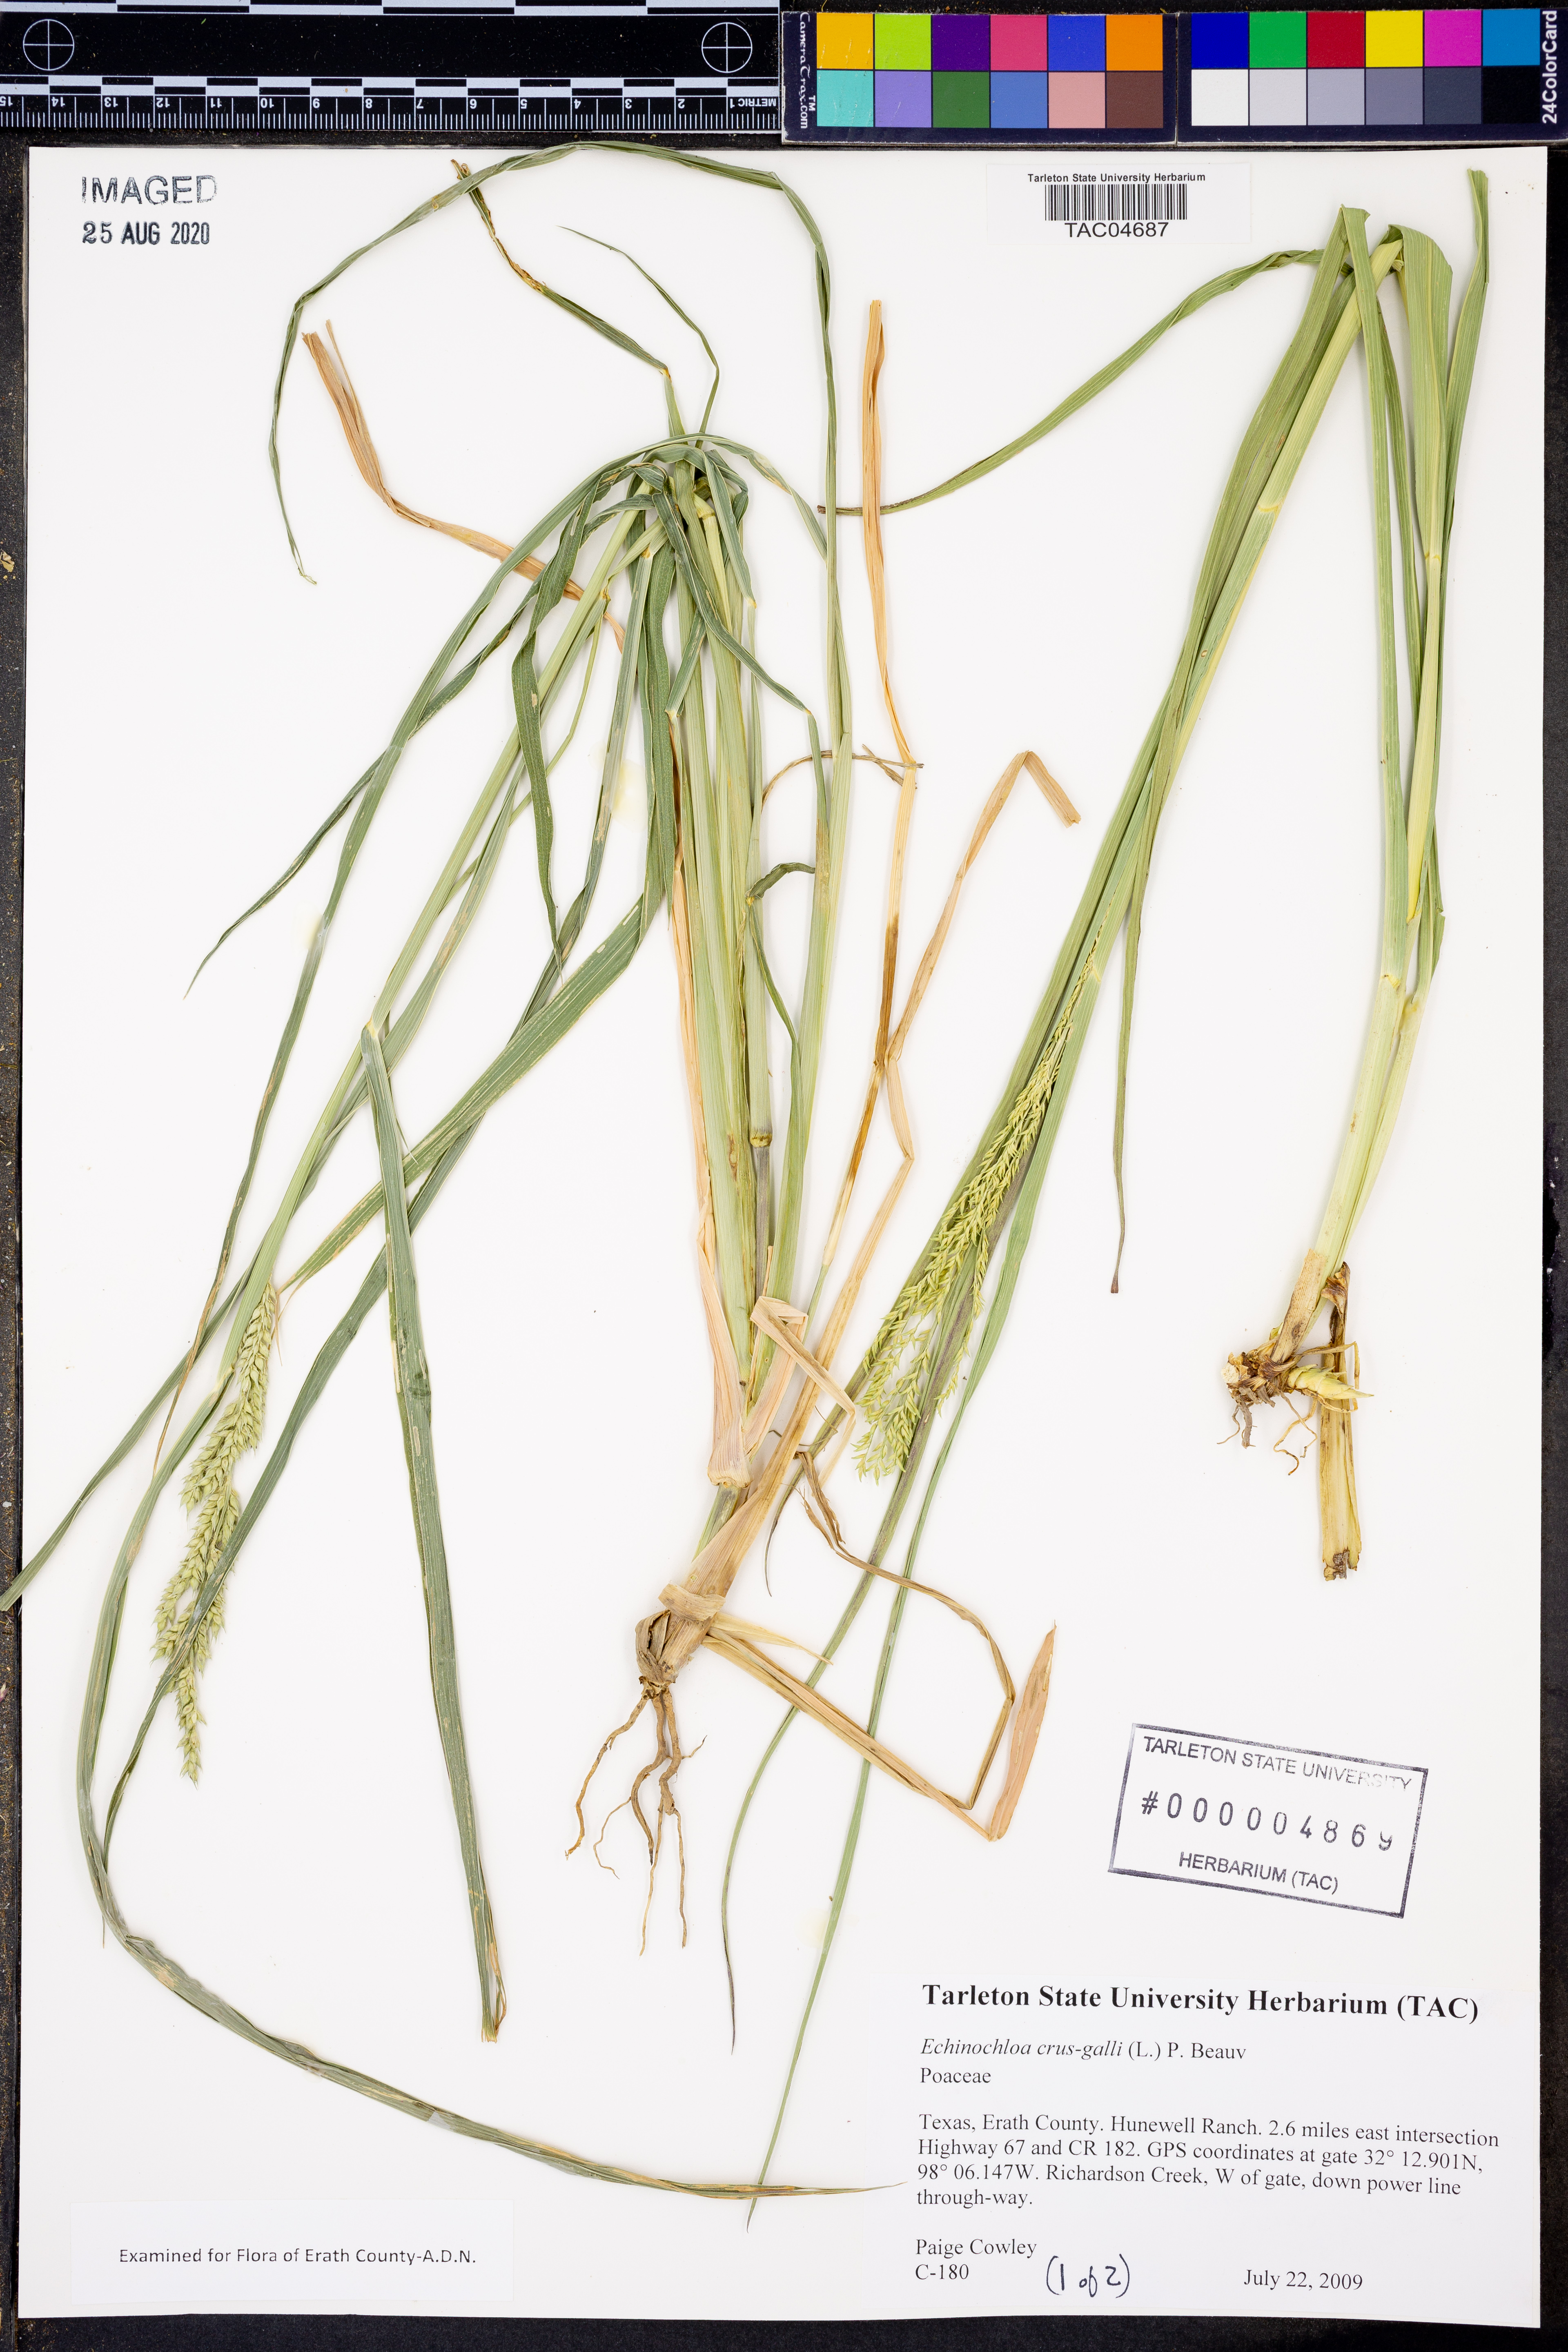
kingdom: Plantae
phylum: Tracheophyta
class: Liliopsida
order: Poales
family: Poaceae
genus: Echinochloa
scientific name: Echinochloa crus-galli
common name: Cockspur
